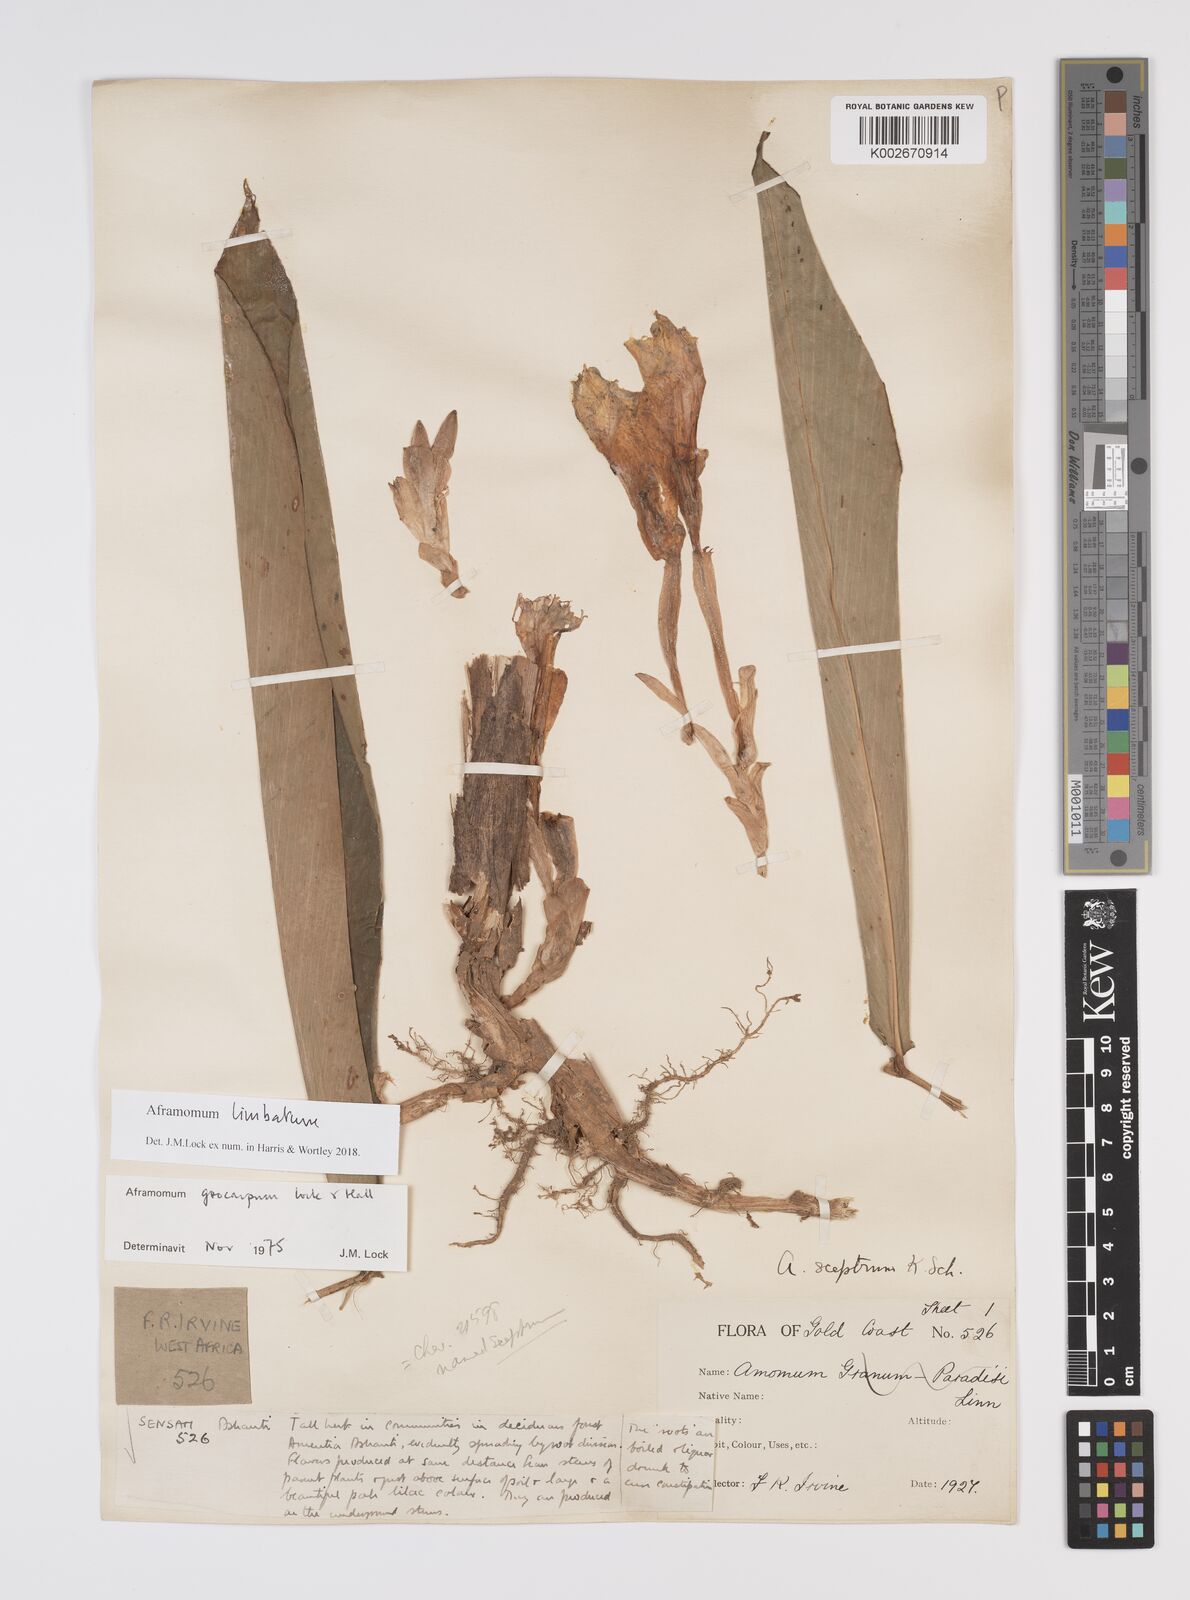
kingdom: Plantae
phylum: Tracheophyta
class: Liliopsida
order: Zingiberales
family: Zingiberaceae
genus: Aframomum
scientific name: Aframomum limbatum
